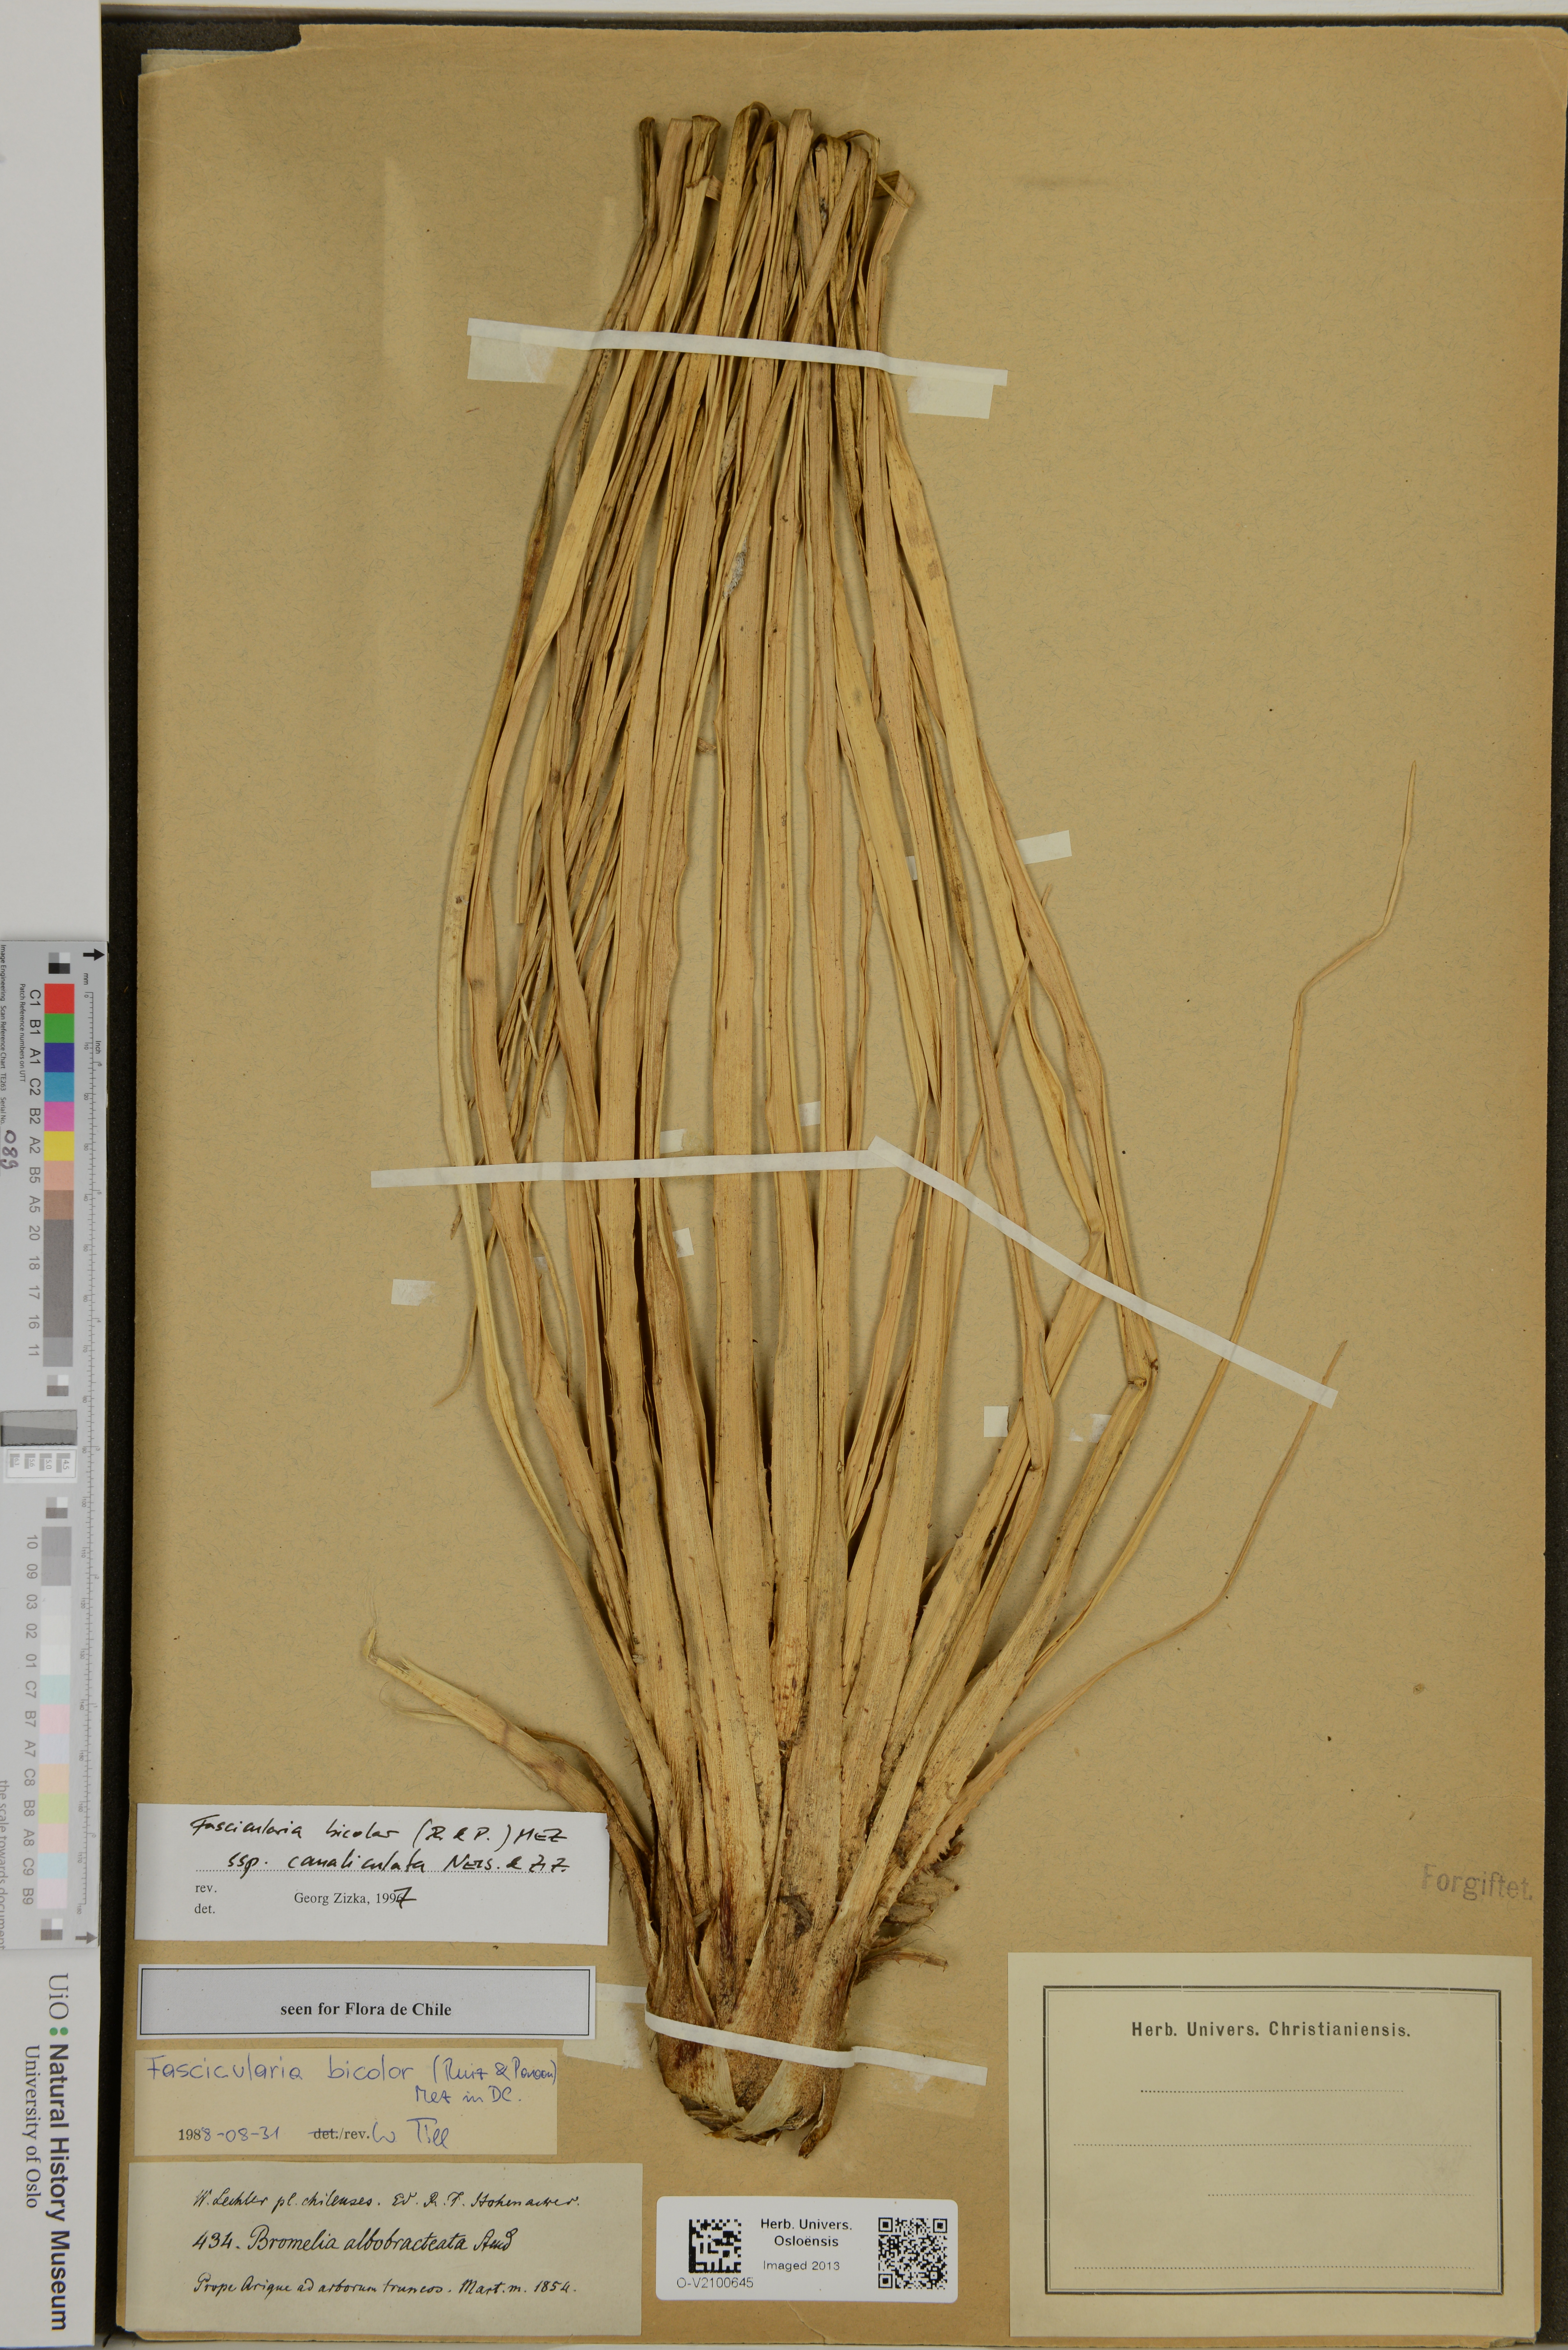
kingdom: Plantae
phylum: Tracheophyta
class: Liliopsida
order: Poales
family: Bromeliaceae
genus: Fascicularia
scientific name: Fascicularia bicolor
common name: Rhodostachys
